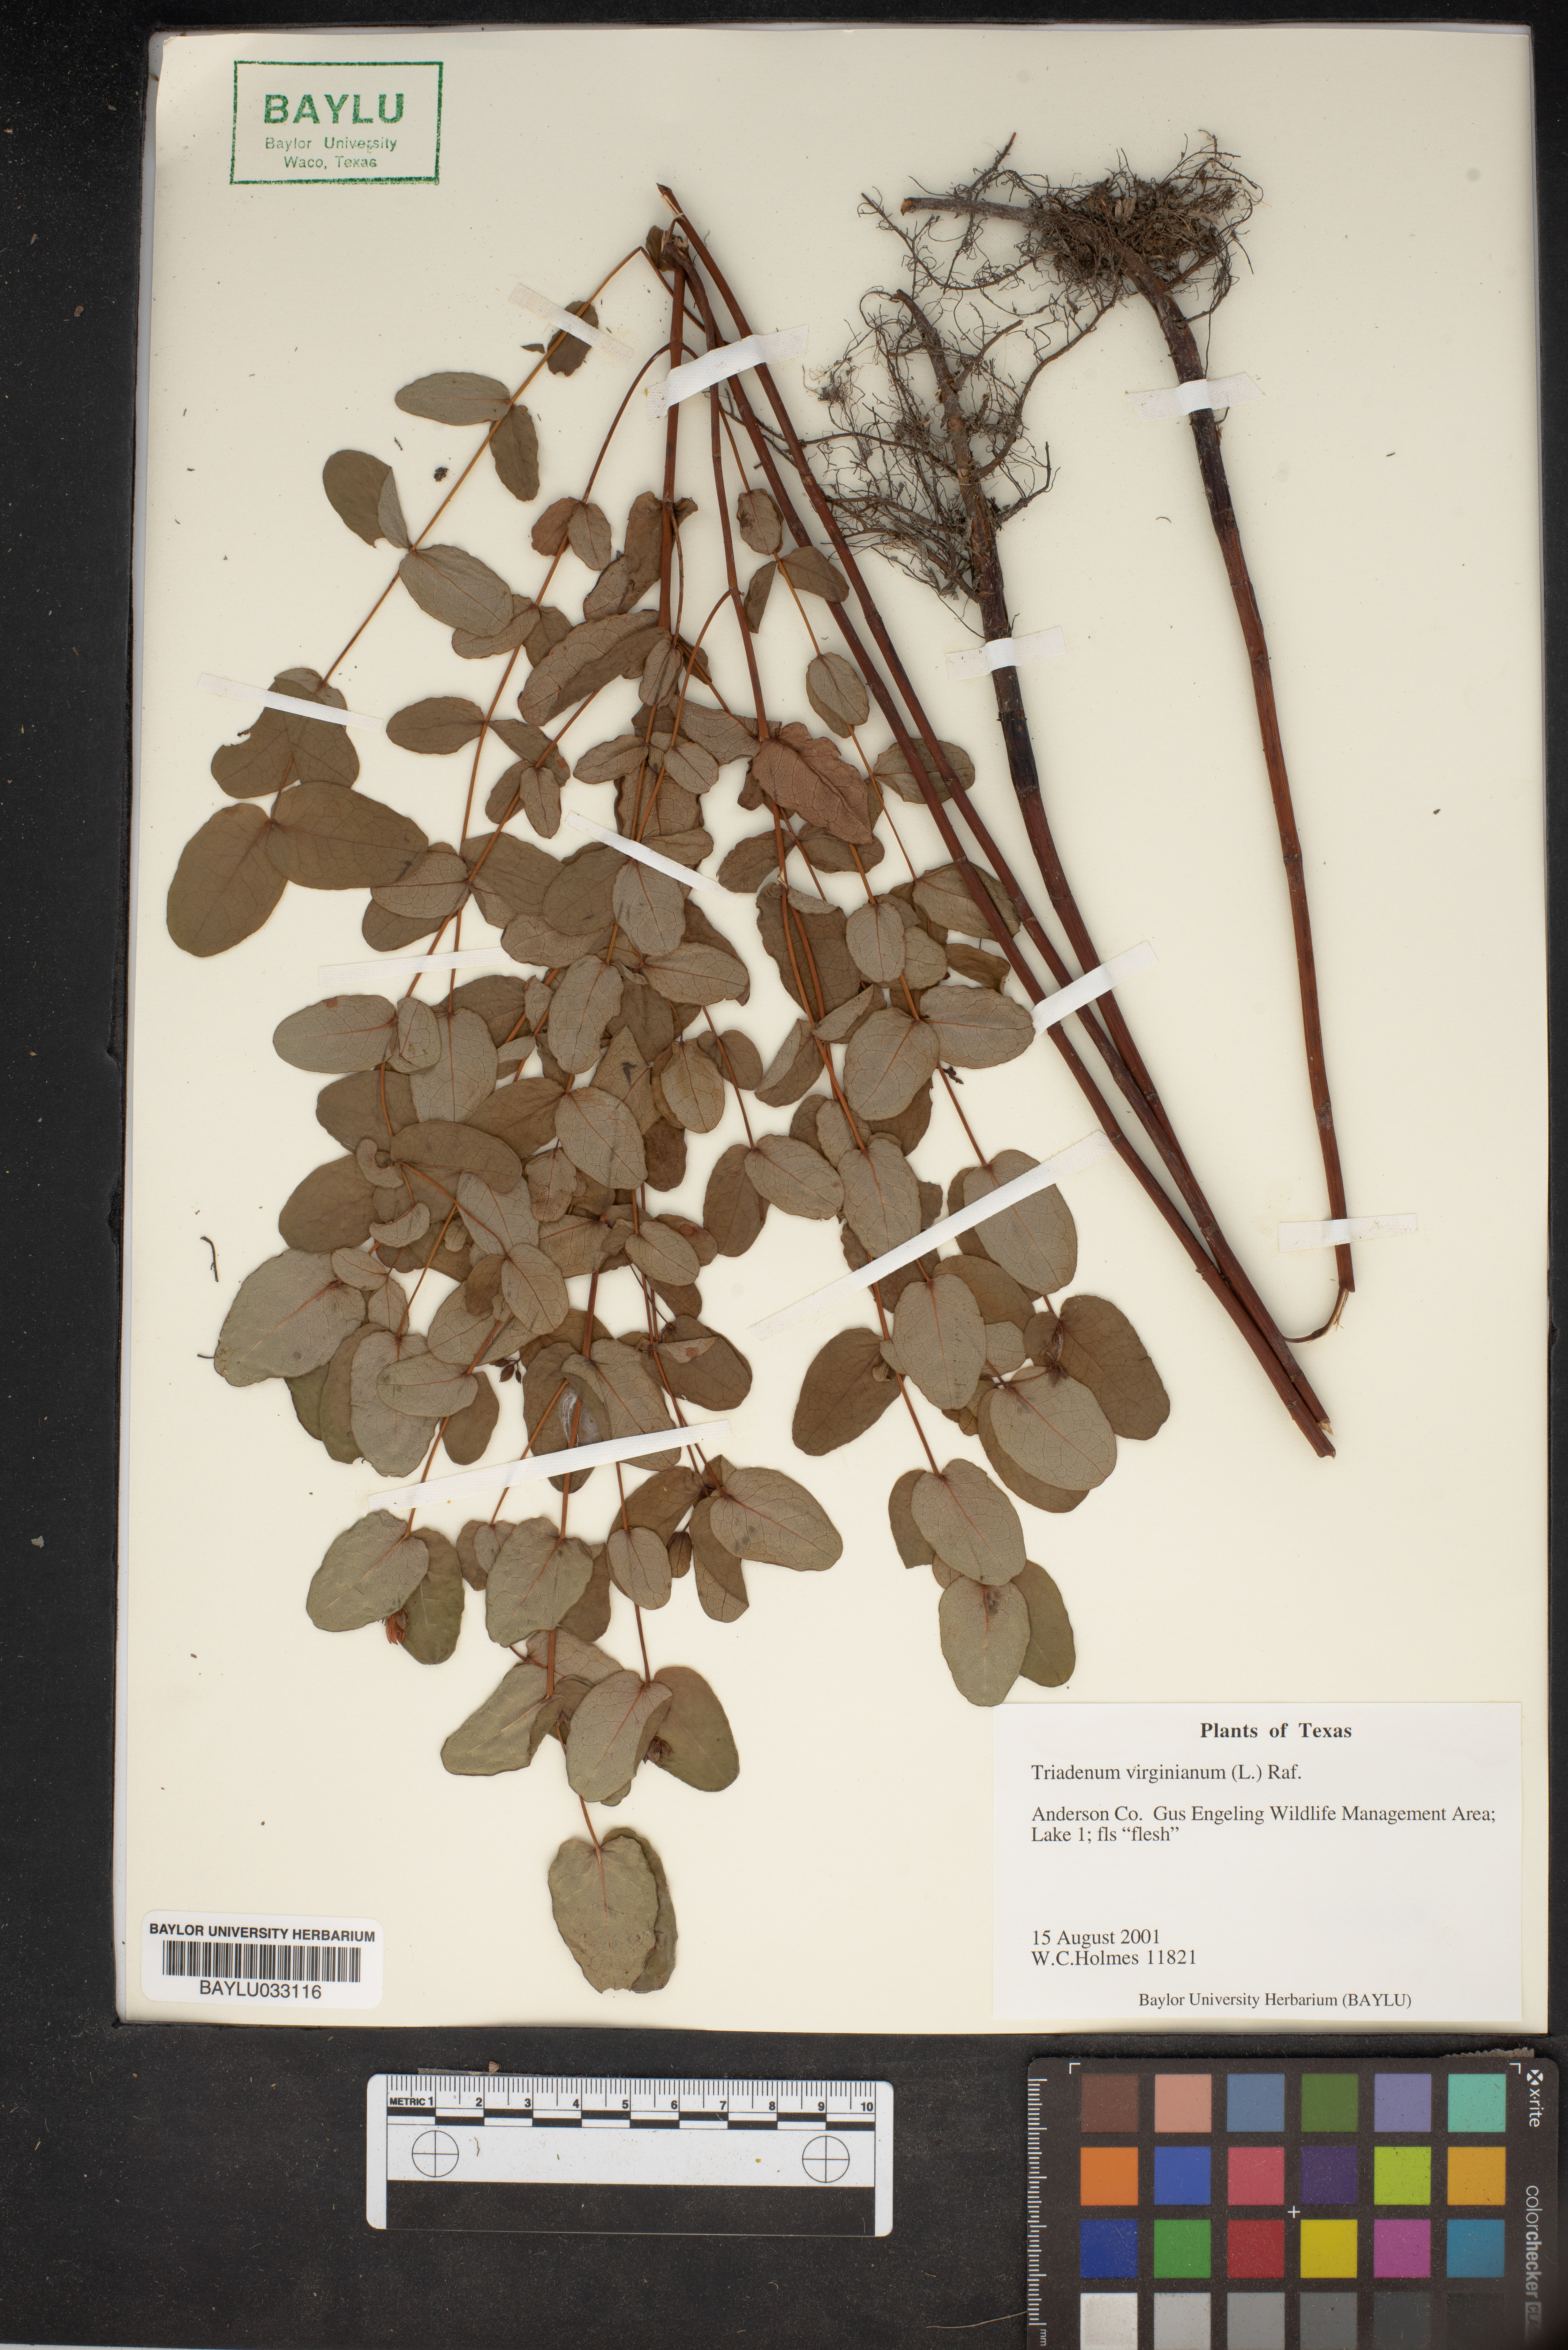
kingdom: Plantae
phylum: Tracheophyta
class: Magnoliopsida
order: Malpighiales
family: Hypericaceae
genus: Triadenum
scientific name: Triadenum virginicum
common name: Marsh st. john's-wort
